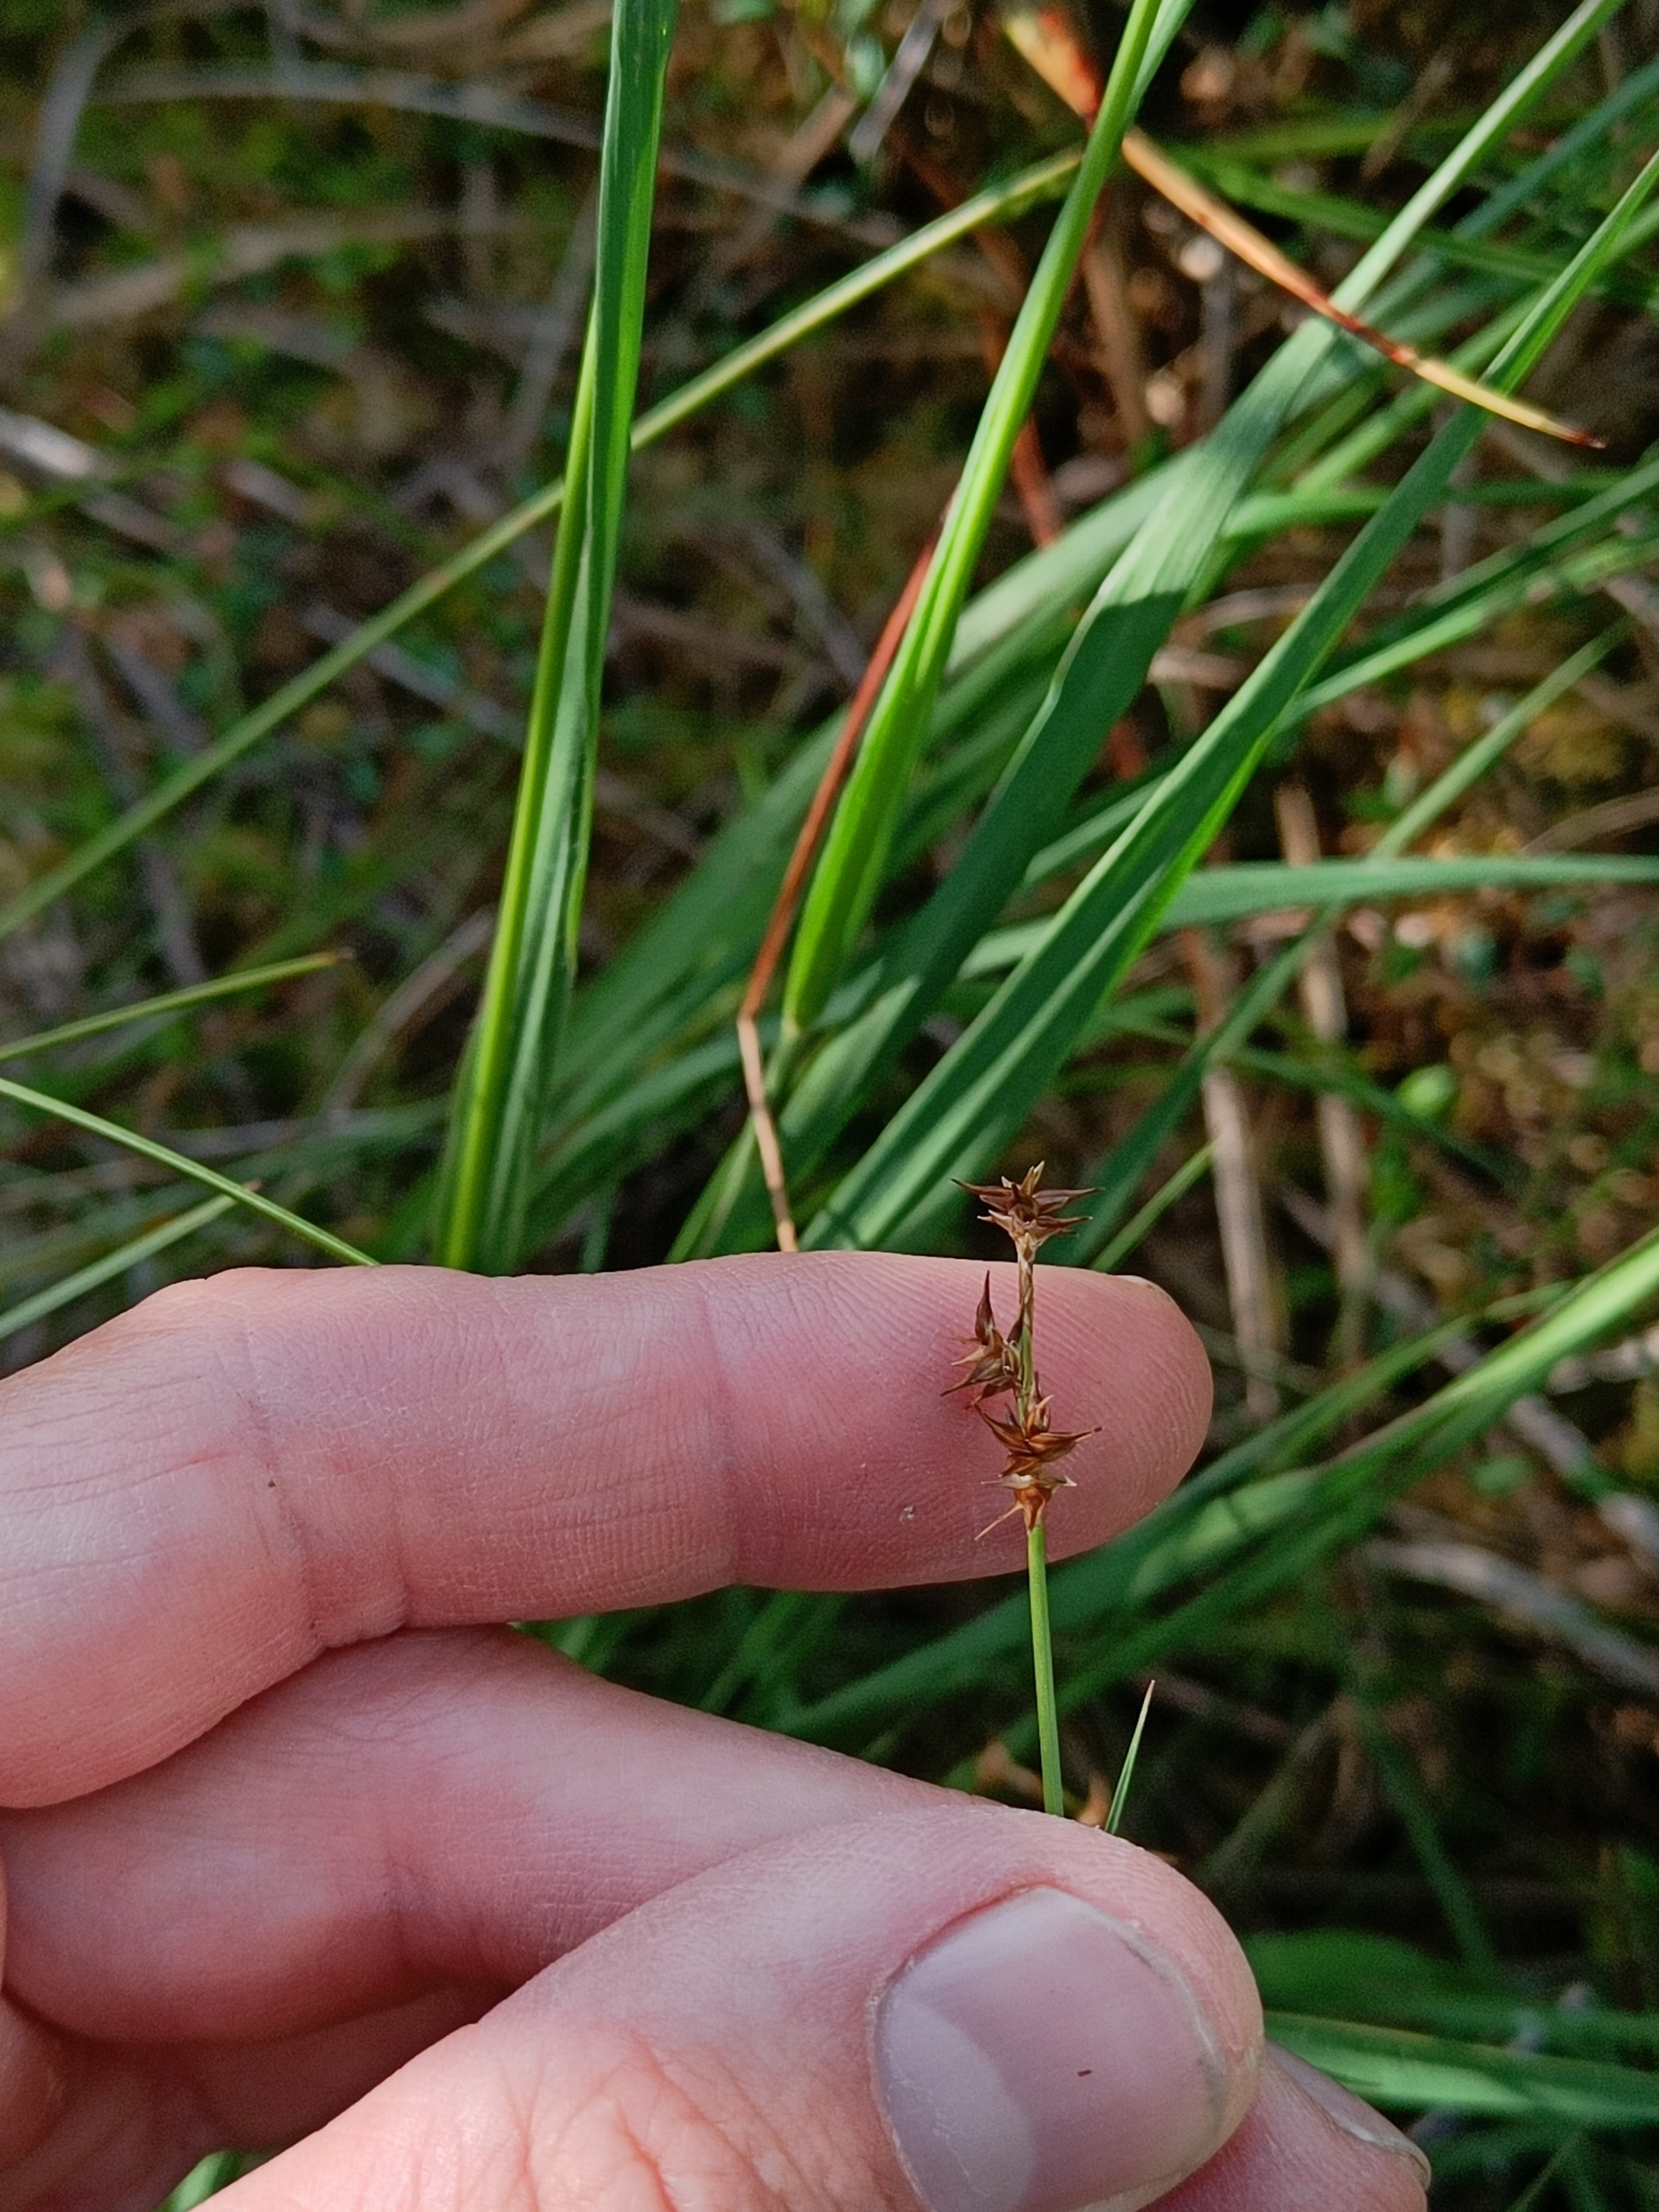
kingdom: Plantae
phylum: Tracheophyta
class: Liliopsida
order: Poales
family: Cyperaceae
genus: Carex
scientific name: Carex echinata
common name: Stjerne-star
